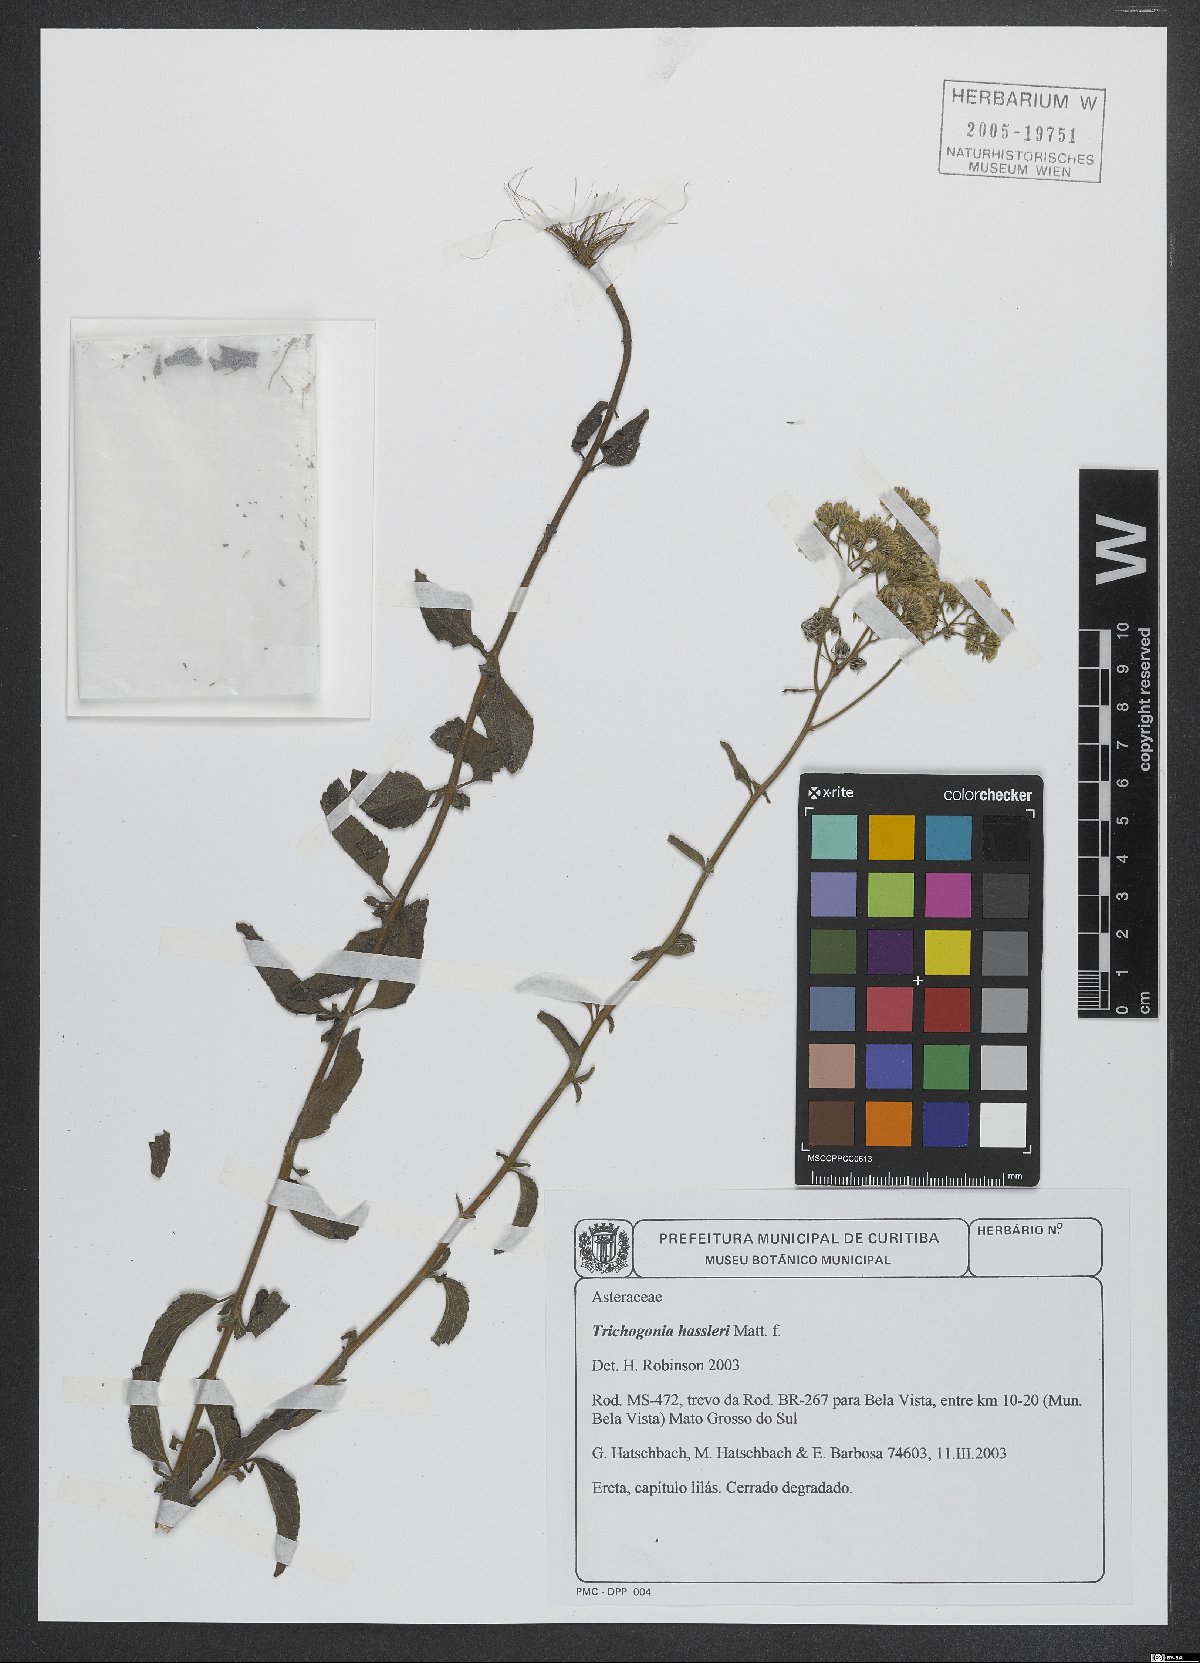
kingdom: Plantae
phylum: Tracheophyta
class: Magnoliopsida
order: Asterales
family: Asteraceae
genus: Trichogonia
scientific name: Trichogonia hassleri
